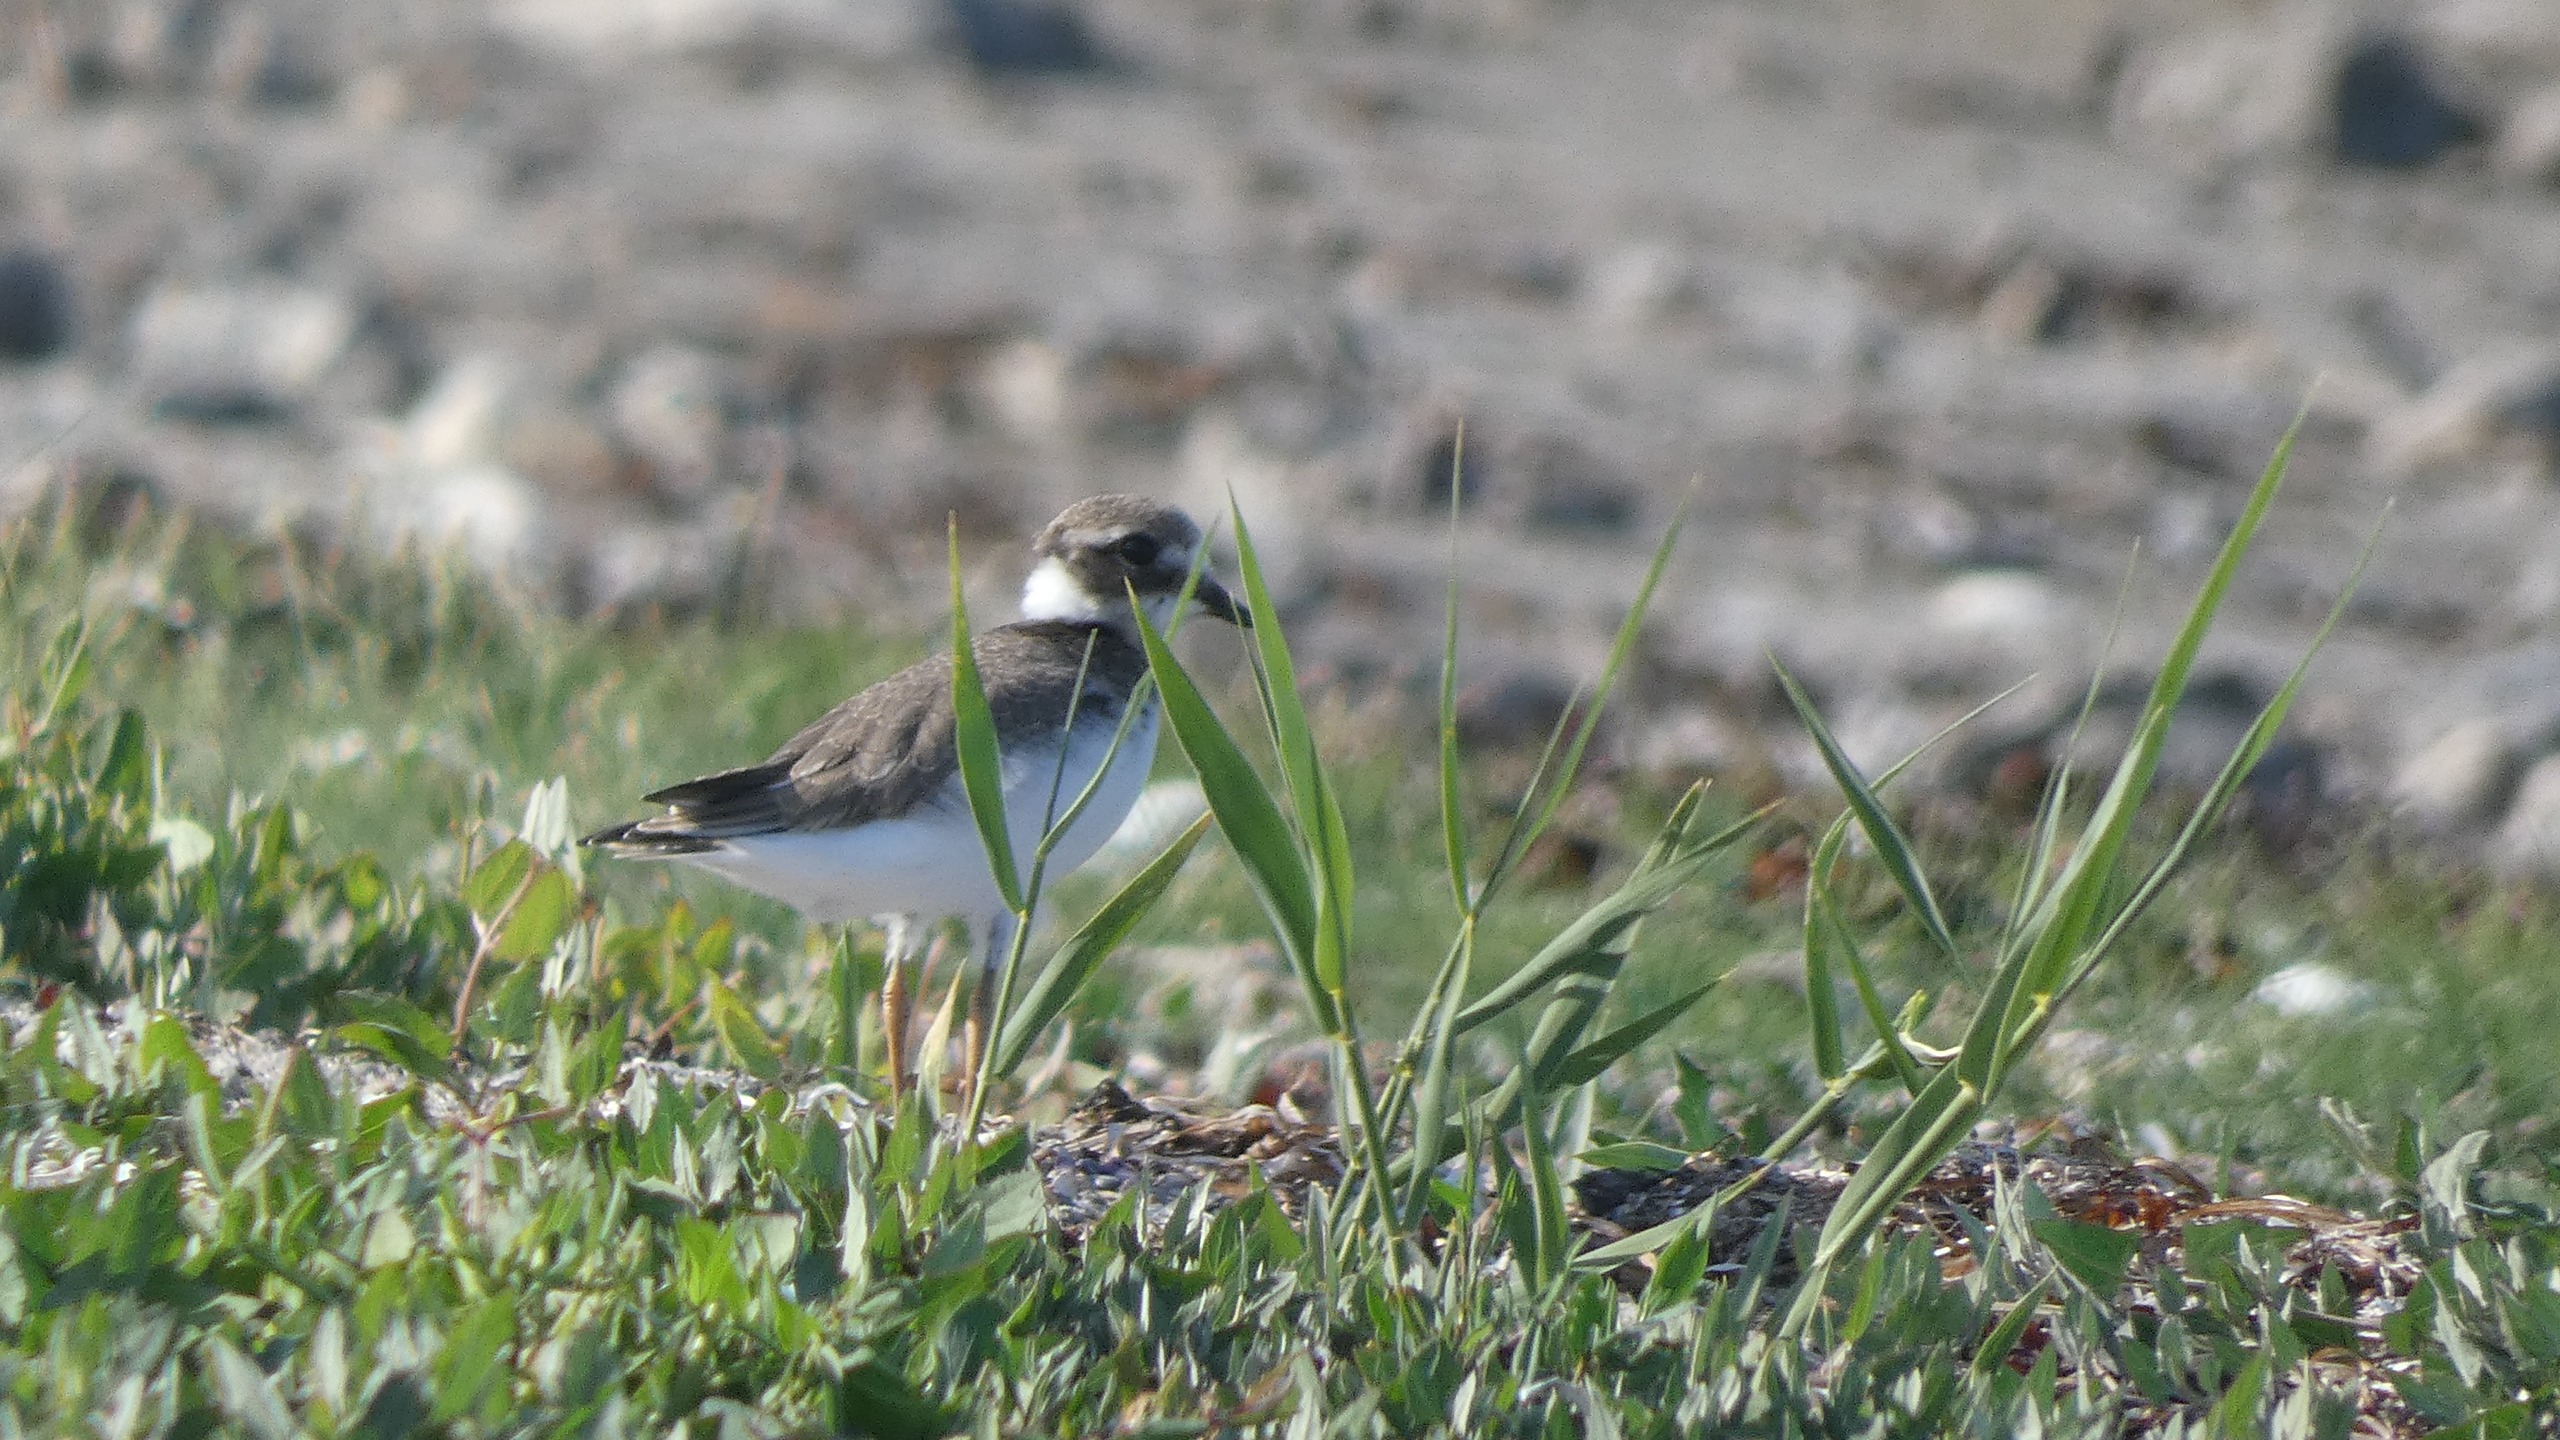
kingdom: Animalia
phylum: Chordata
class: Aves
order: Charadriiformes
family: Charadriidae
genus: Charadrius
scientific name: Charadrius hiaticula
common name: Stor præstekrave
